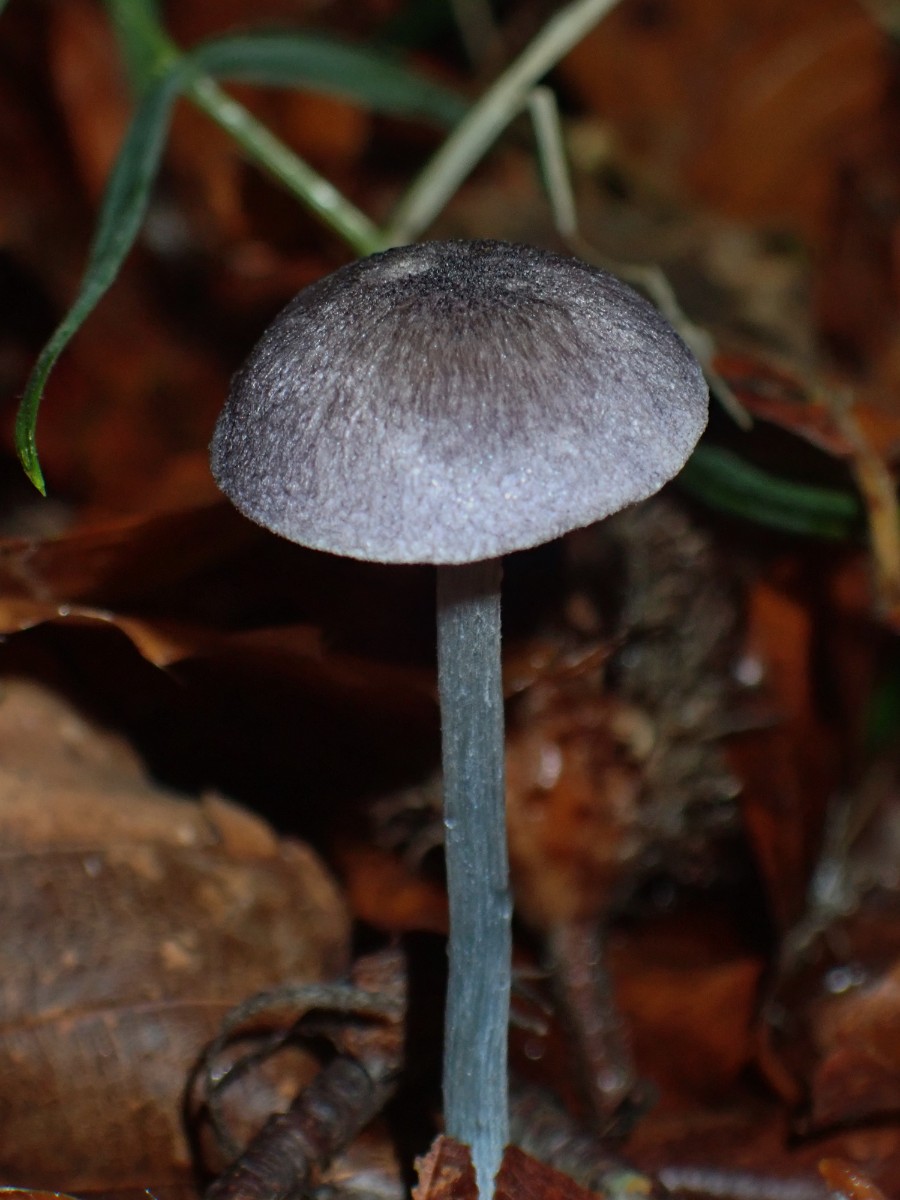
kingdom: Fungi
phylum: Basidiomycota
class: Agaricomycetes
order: Agaricales
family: Entolomataceae
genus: Entoloma
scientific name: Entoloma lampropus
